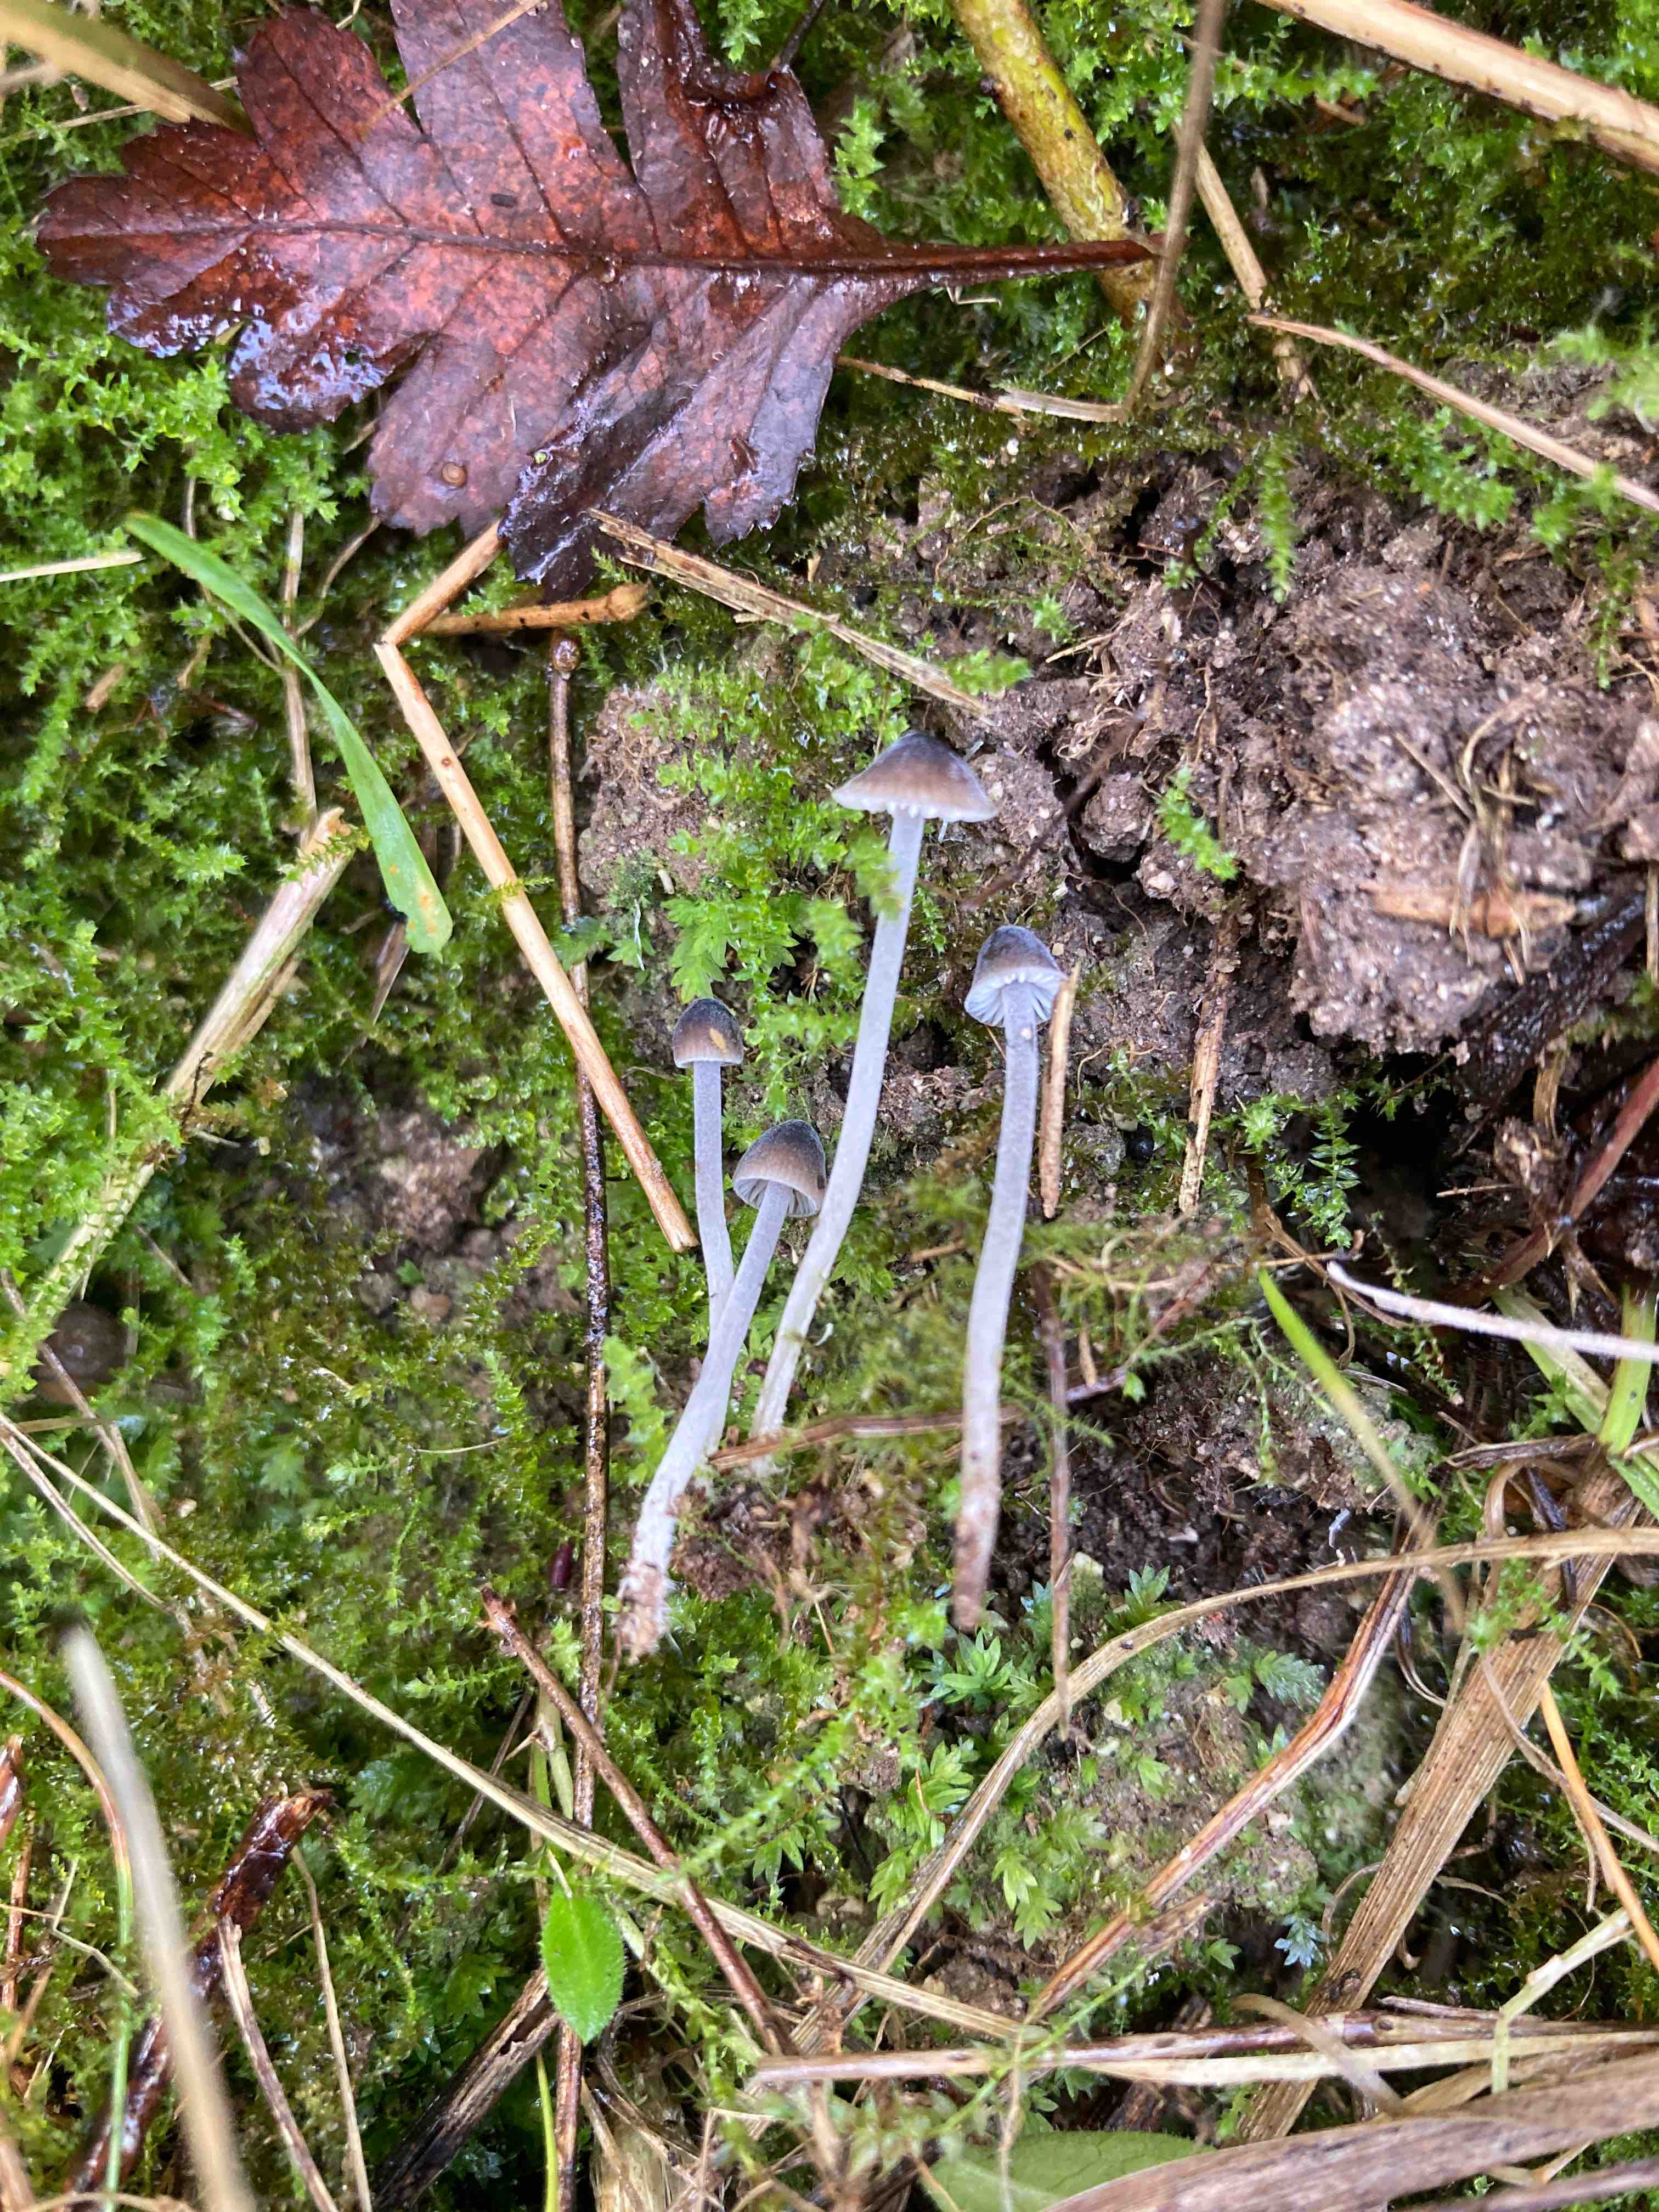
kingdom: Fungi
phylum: Basidiomycota
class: Agaricomycetes
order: Agaricales
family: Tricholomataceae
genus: Mycenella
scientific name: Mycenella salicina
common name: glatsporet dughat
